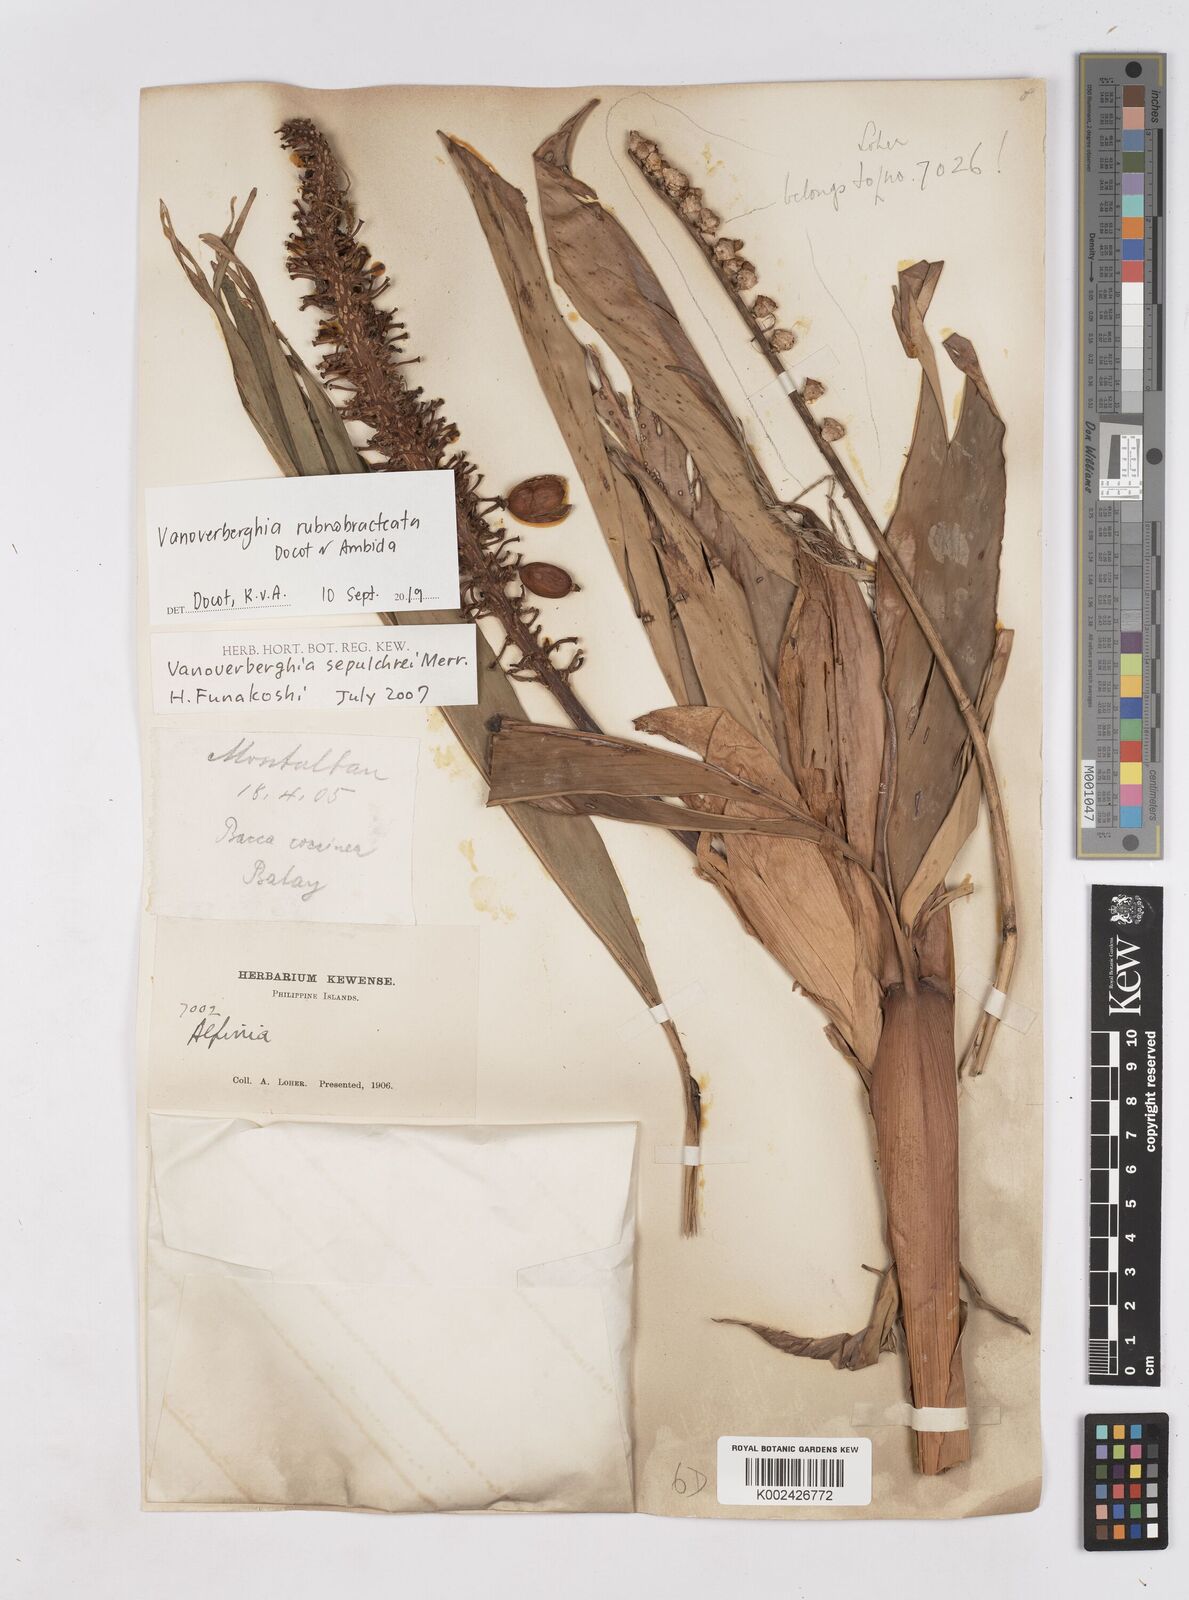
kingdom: Plantae
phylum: Tracheophyta
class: Liliopsida
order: Zingiberales
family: Zingiberaceae
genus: Vanoverberghia
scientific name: Vanoverberghia rubrobracteata
